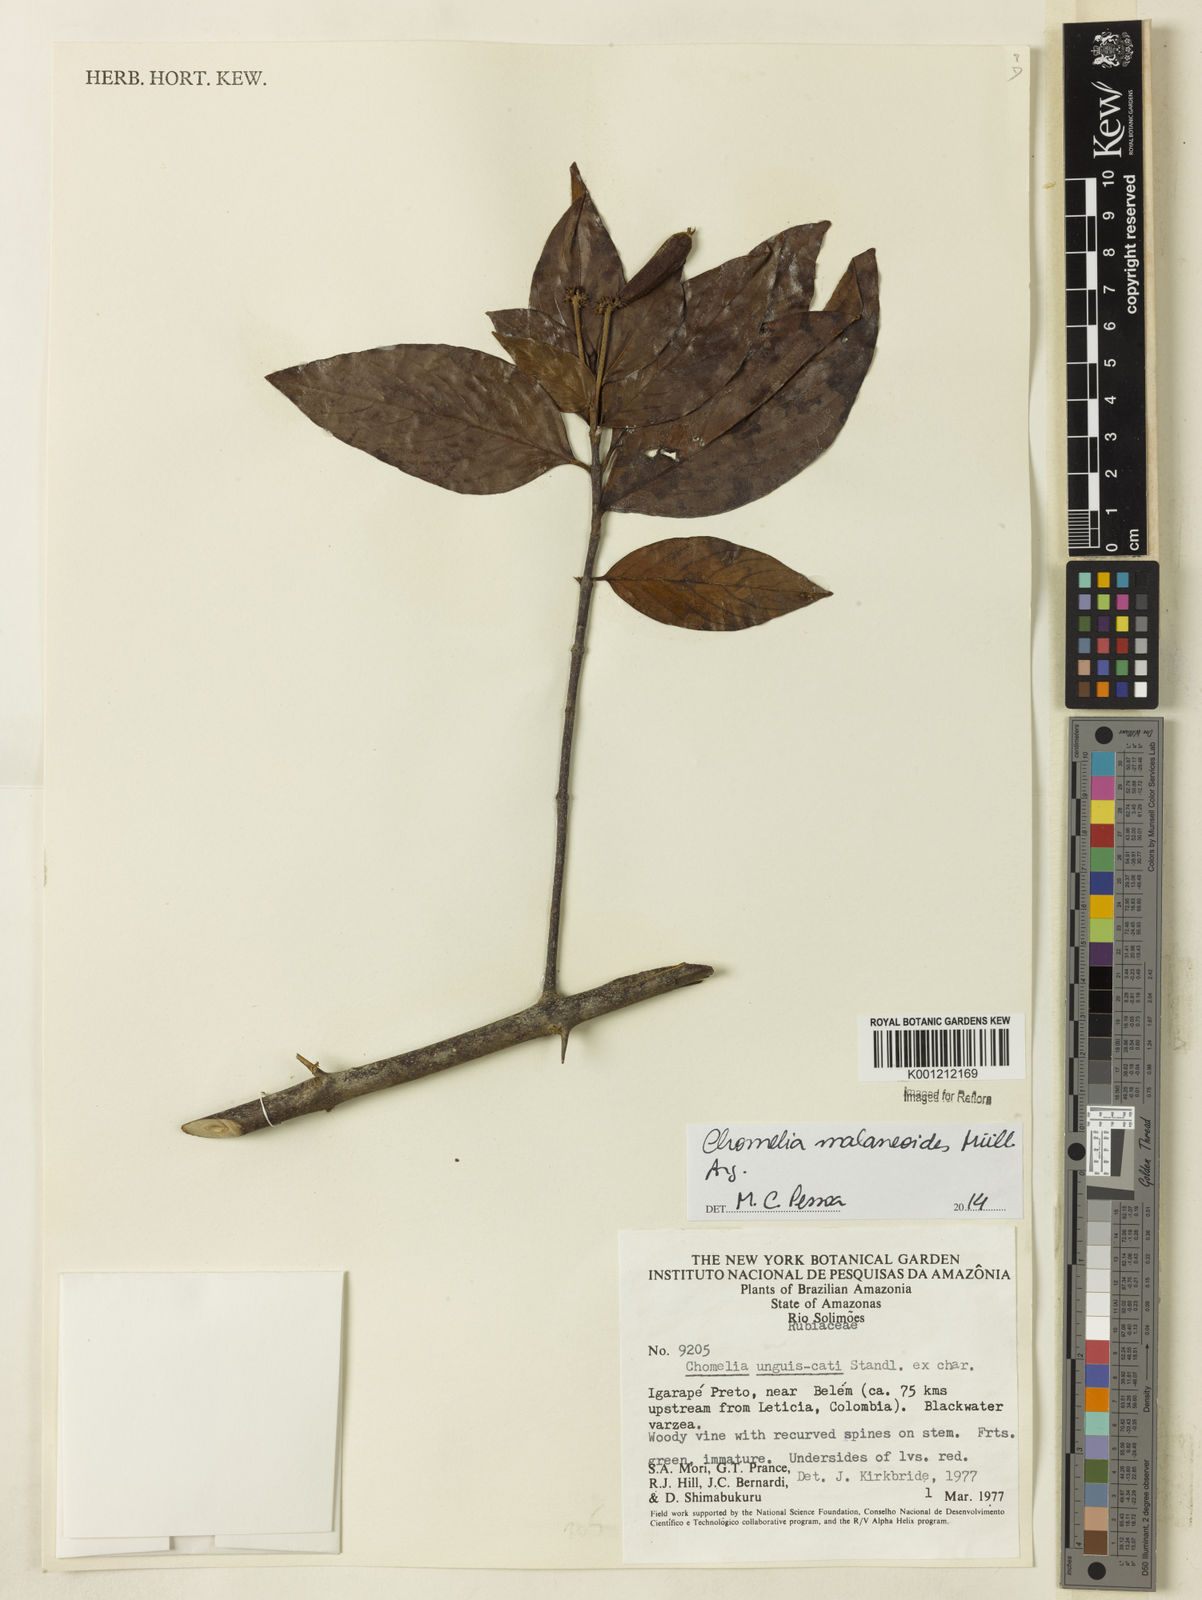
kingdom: Plantae
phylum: Tracheophyta
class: Magnoliopsida
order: Gentianales
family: Rubiaceae
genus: Chomelia
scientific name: Chomelia malaneoides
